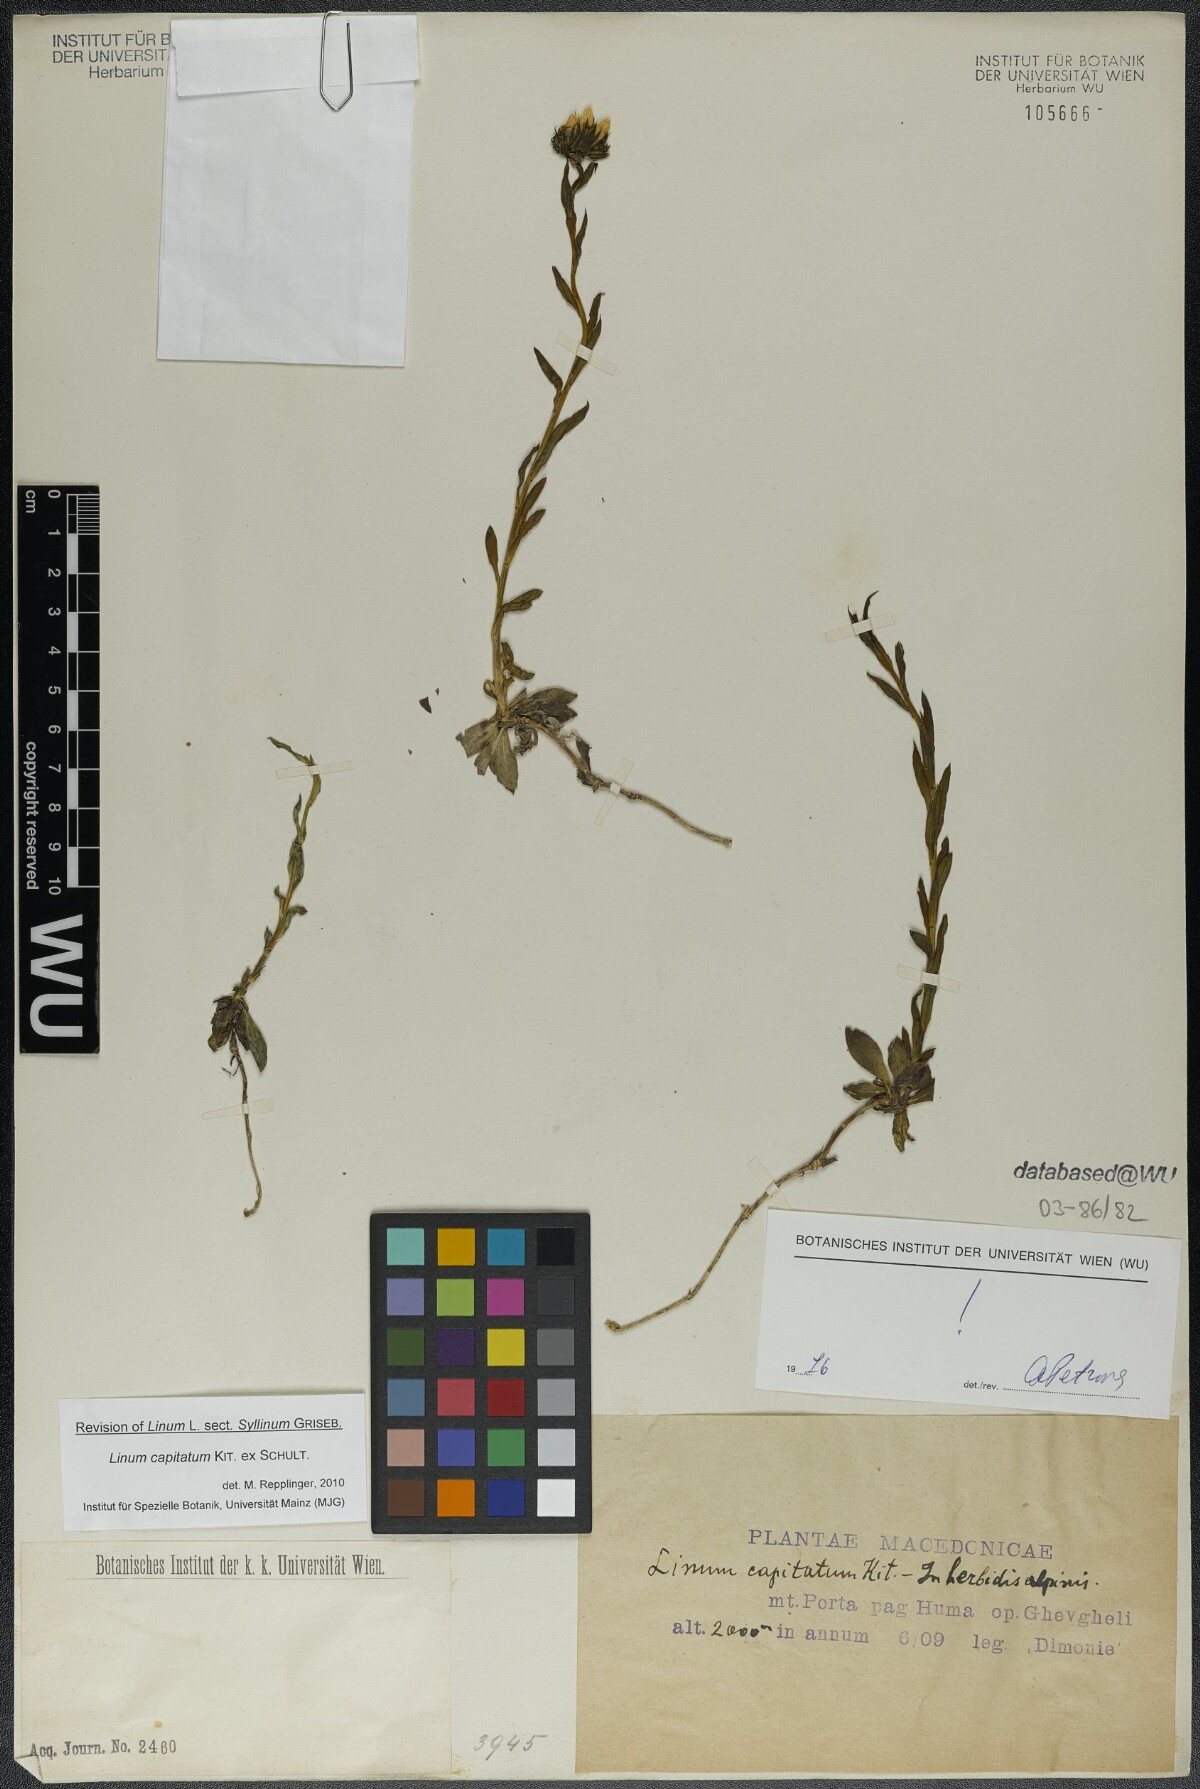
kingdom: Plantae
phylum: Tracheophyta
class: Magnoliopsida
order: Malpighiales
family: Linaceae
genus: Linum
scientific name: Linum capitatum
